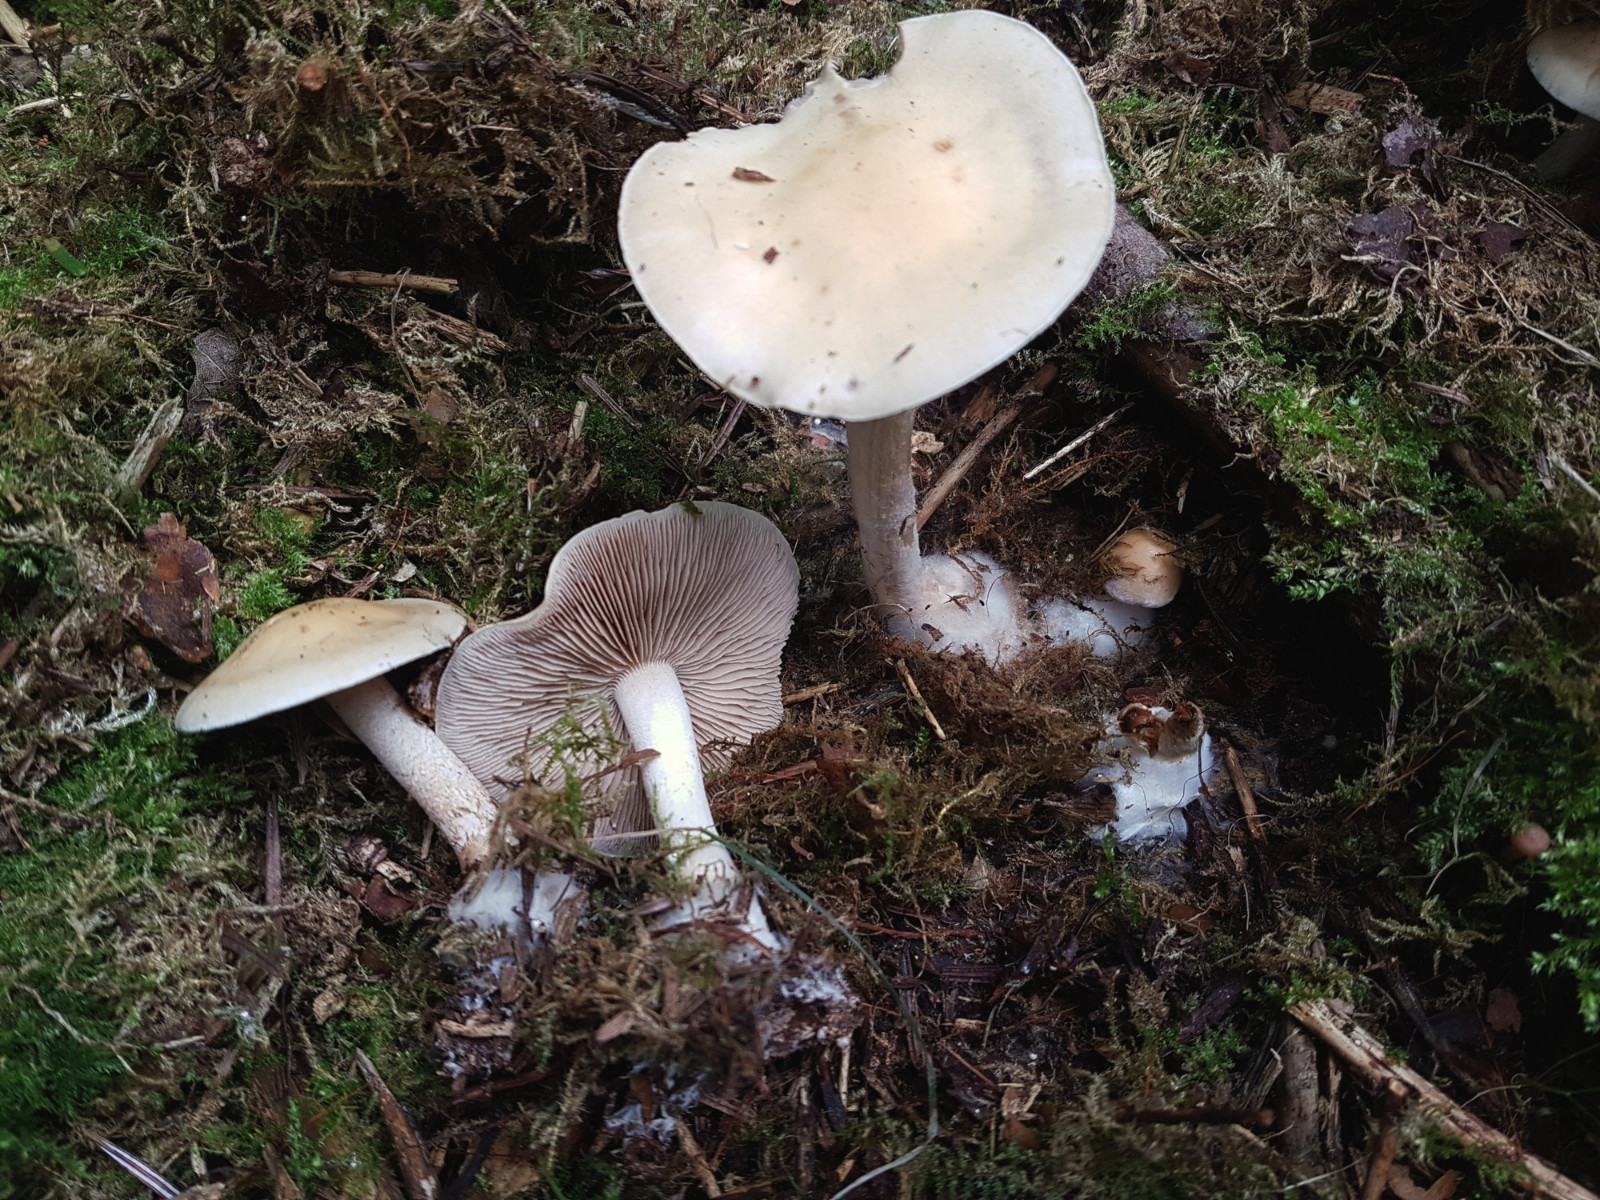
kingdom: Fungi
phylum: Basidiomycota
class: Agaricomycetes
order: Agaricales
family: Hymenogastraceae
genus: Hebeloma
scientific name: Hebeloma
